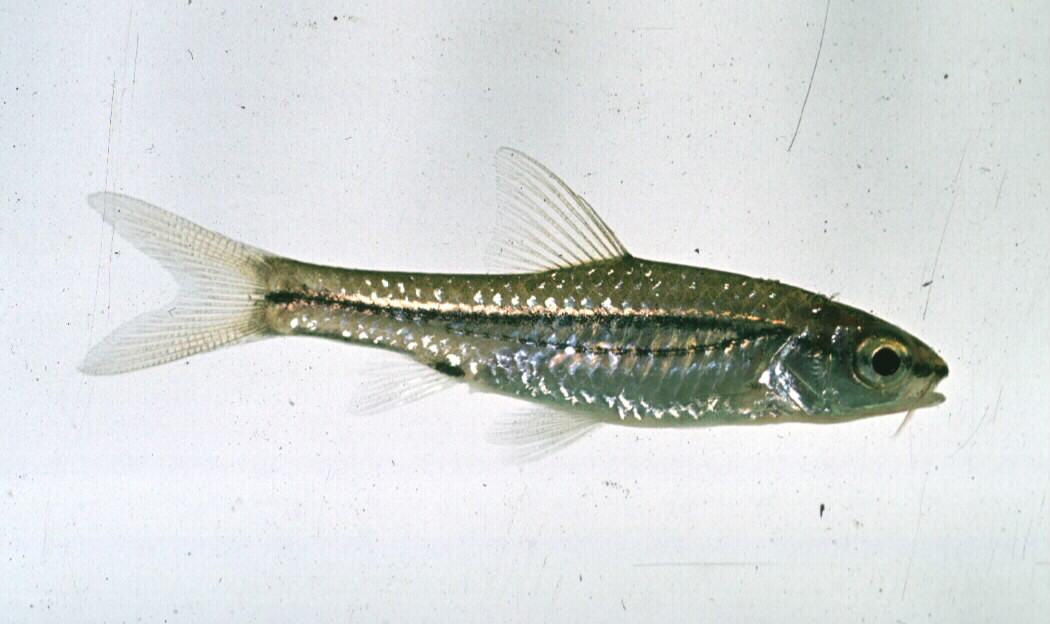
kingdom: Animalia
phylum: Chordata
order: Cypriniformes
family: Cyprinidae
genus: Enteromius
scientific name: Enteromius bifrenatus
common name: Hyphen barb
